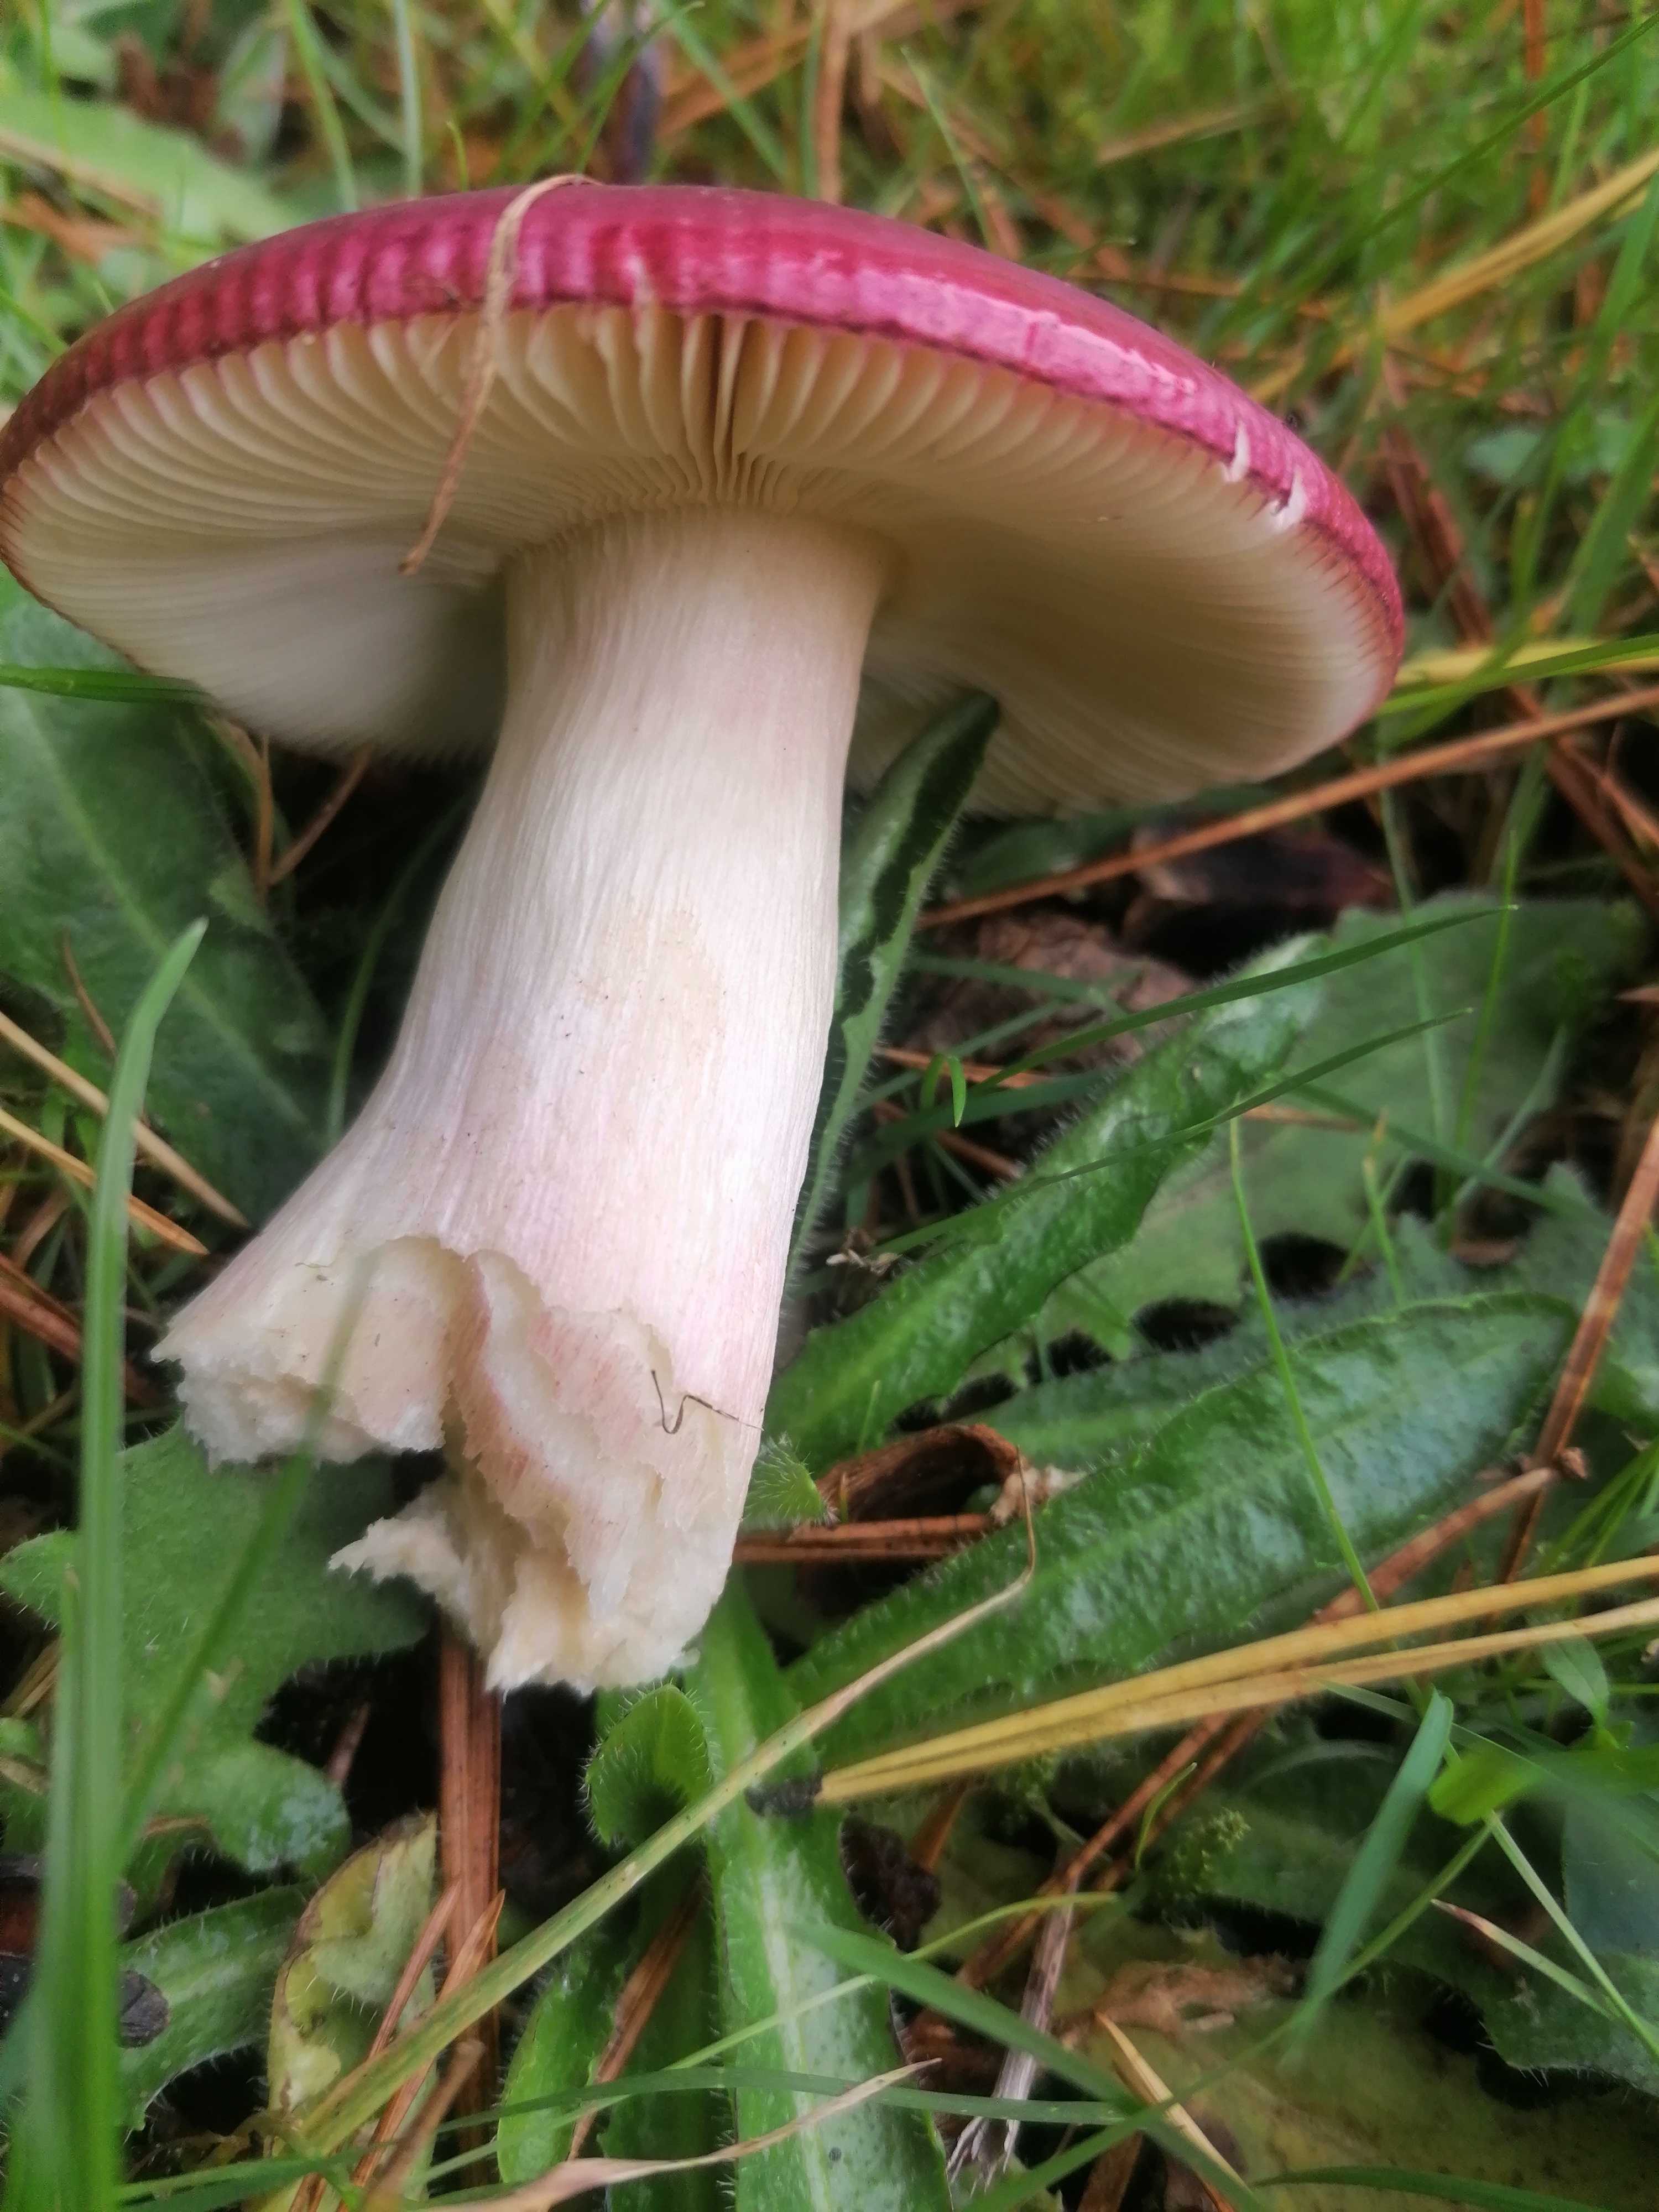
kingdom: Fungi
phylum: Basidiomycota
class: Agaricomycetes
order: Russulales
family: Russulaceae
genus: Russula
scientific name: Russula xerampelina
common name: hummer-skørhat
